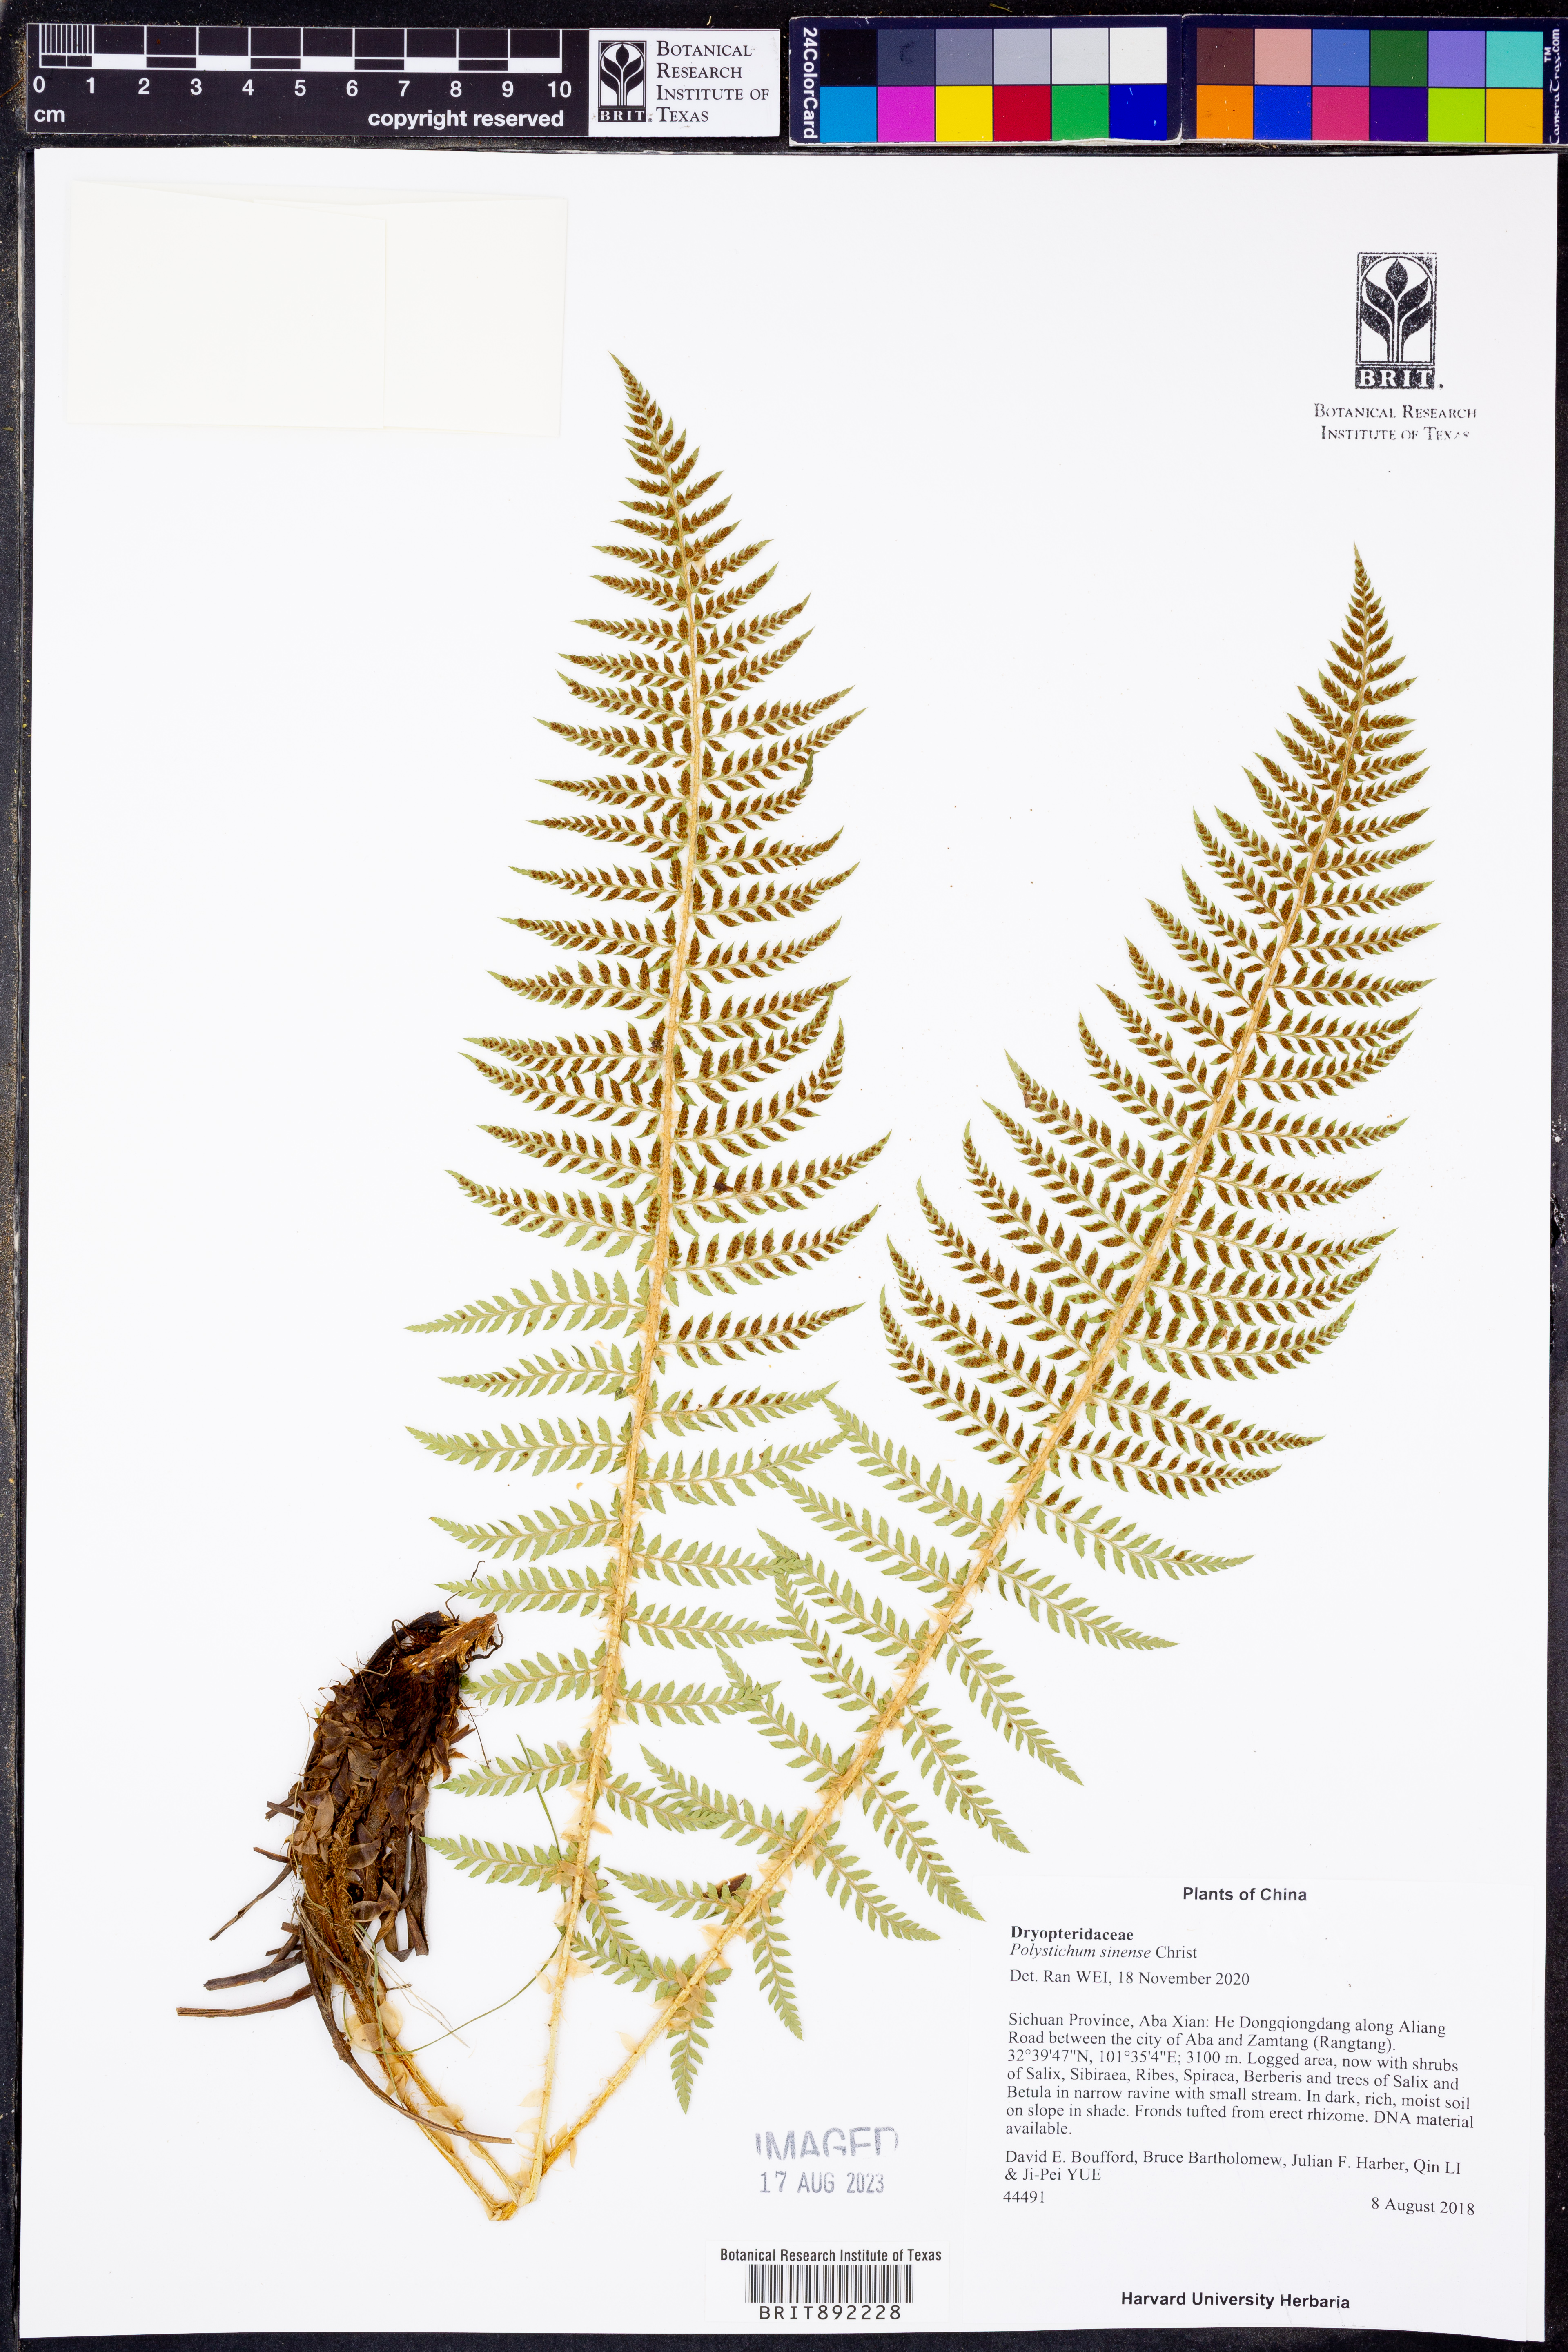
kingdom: Plantae
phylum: Tracheophyta
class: Polypodiopsida
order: Polypodiales
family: Dryopteridaceae
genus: Polystichum
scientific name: Polystichum sinense
